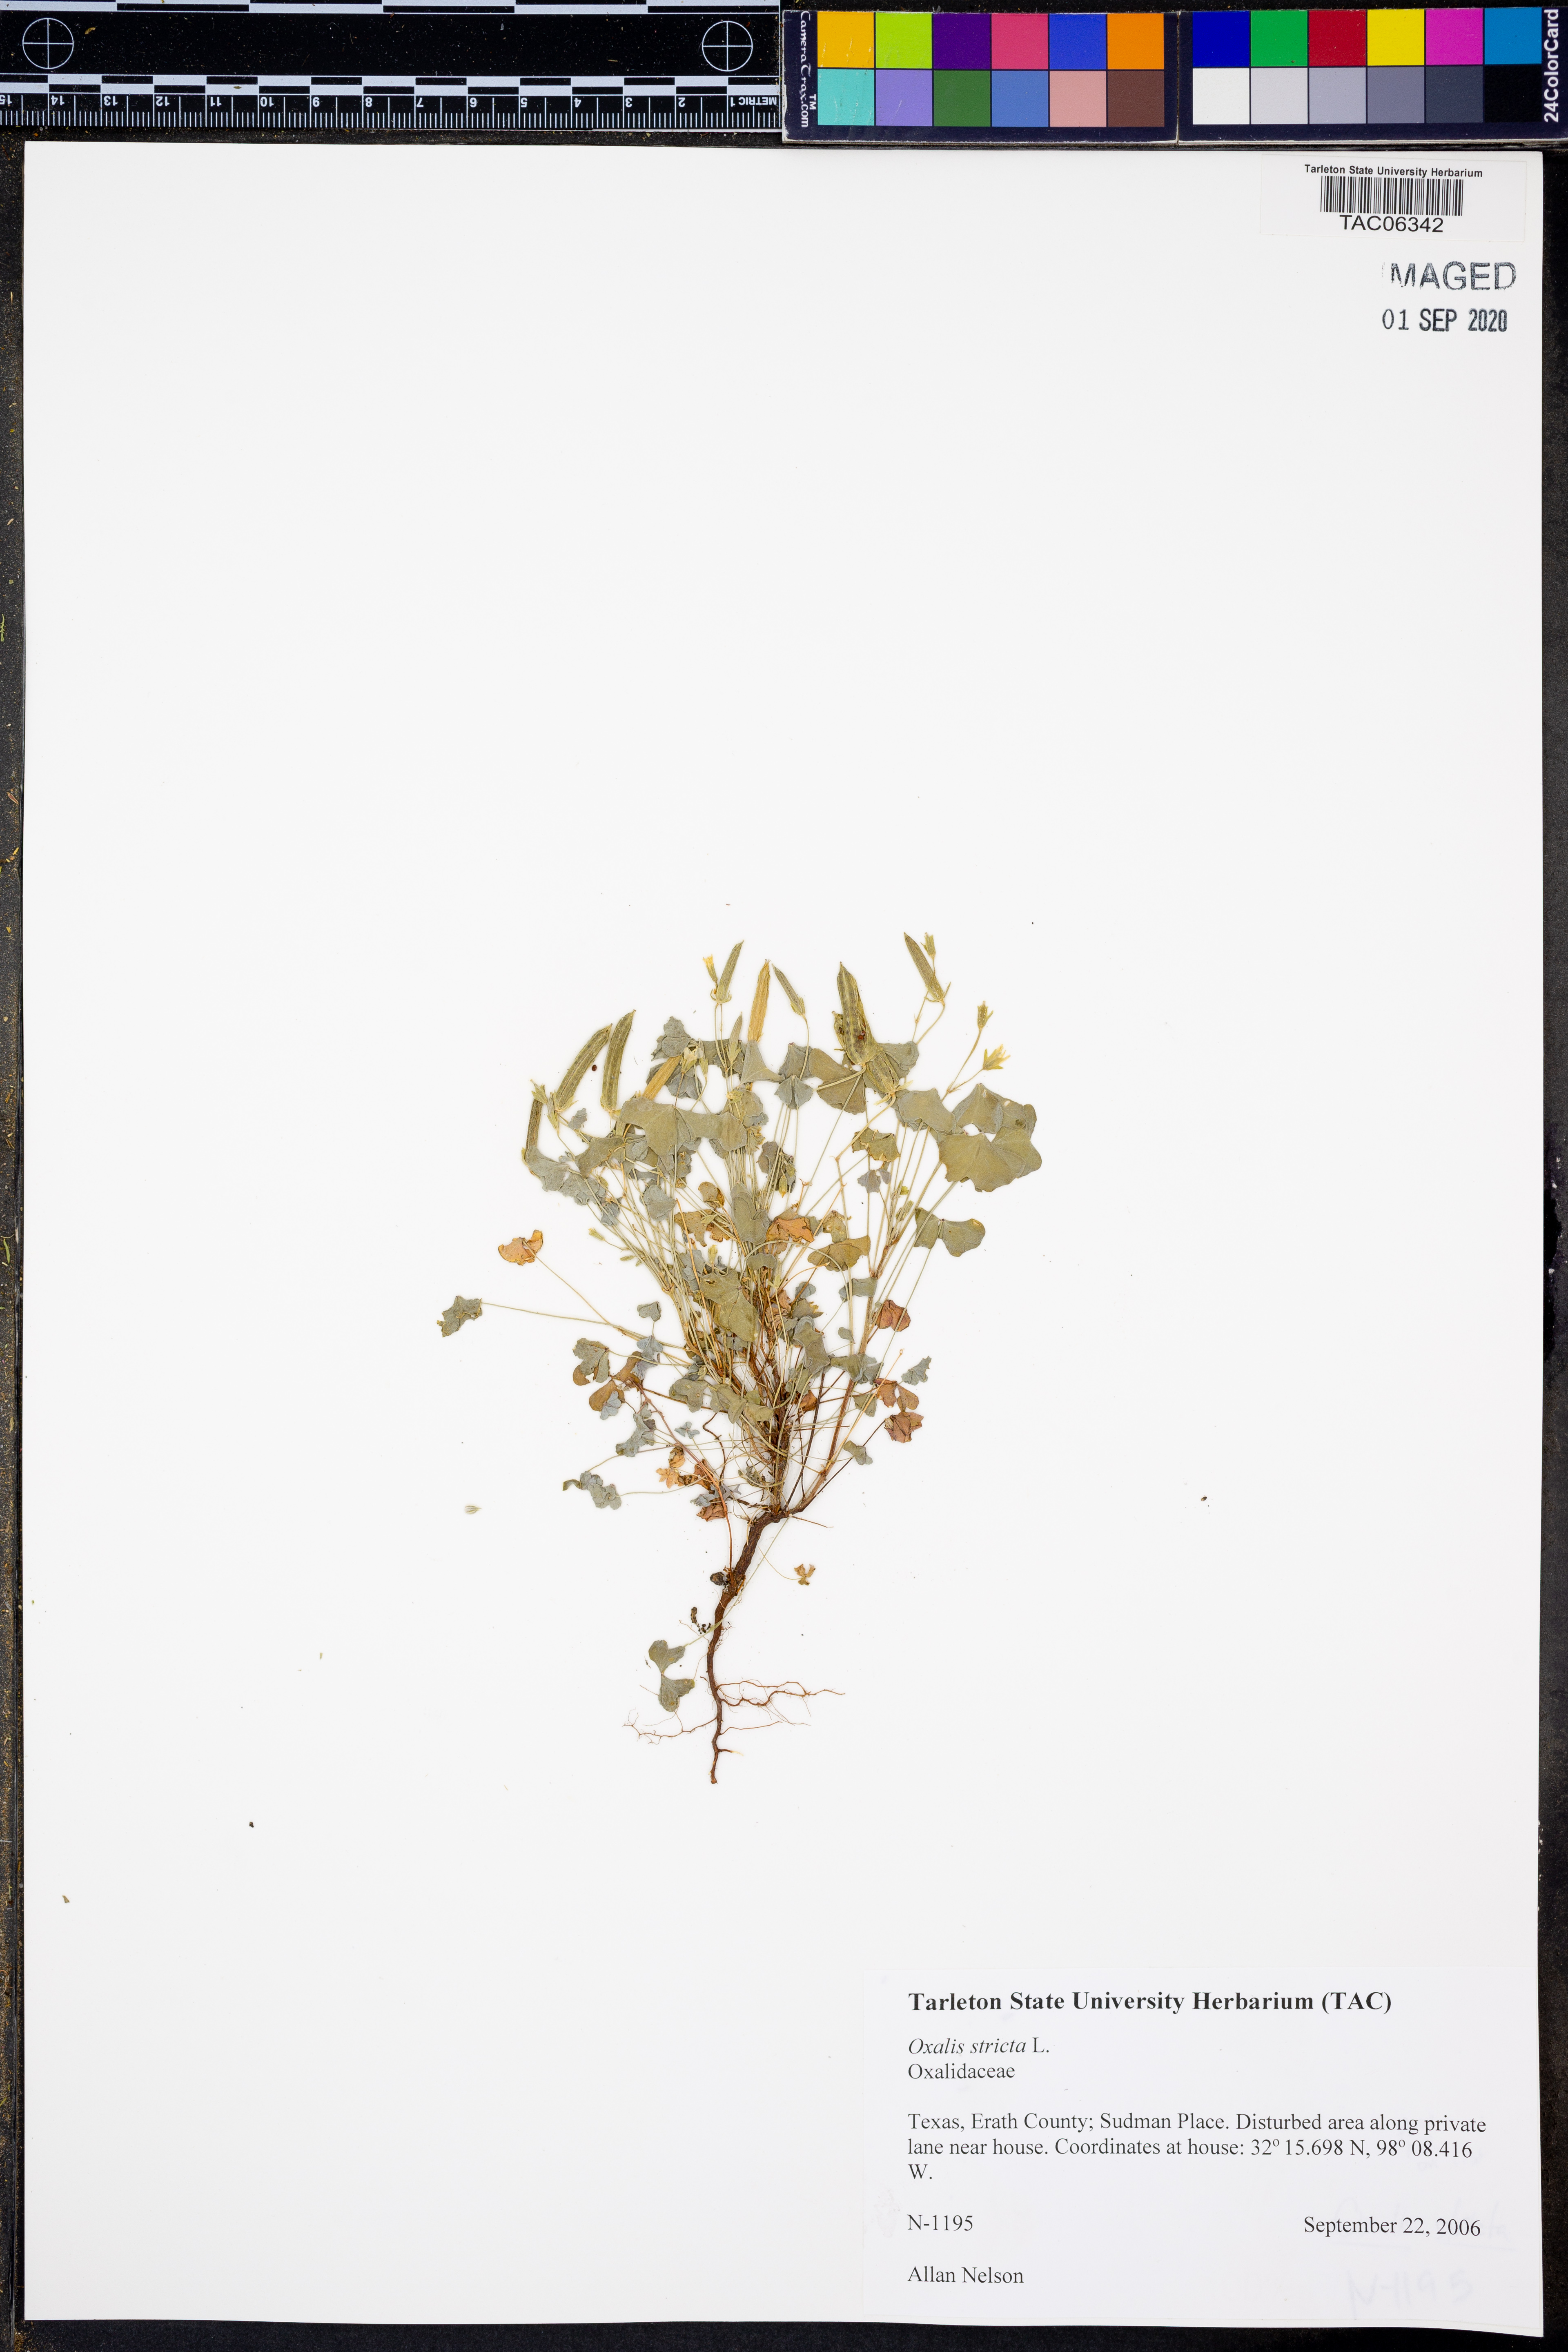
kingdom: Plantae
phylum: Tracheophyta
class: Magnoliopsida
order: Oxalidales
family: Oxalidaceae
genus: Oxalis
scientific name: Oxalis stricta
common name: Upright yellow-sorrel
